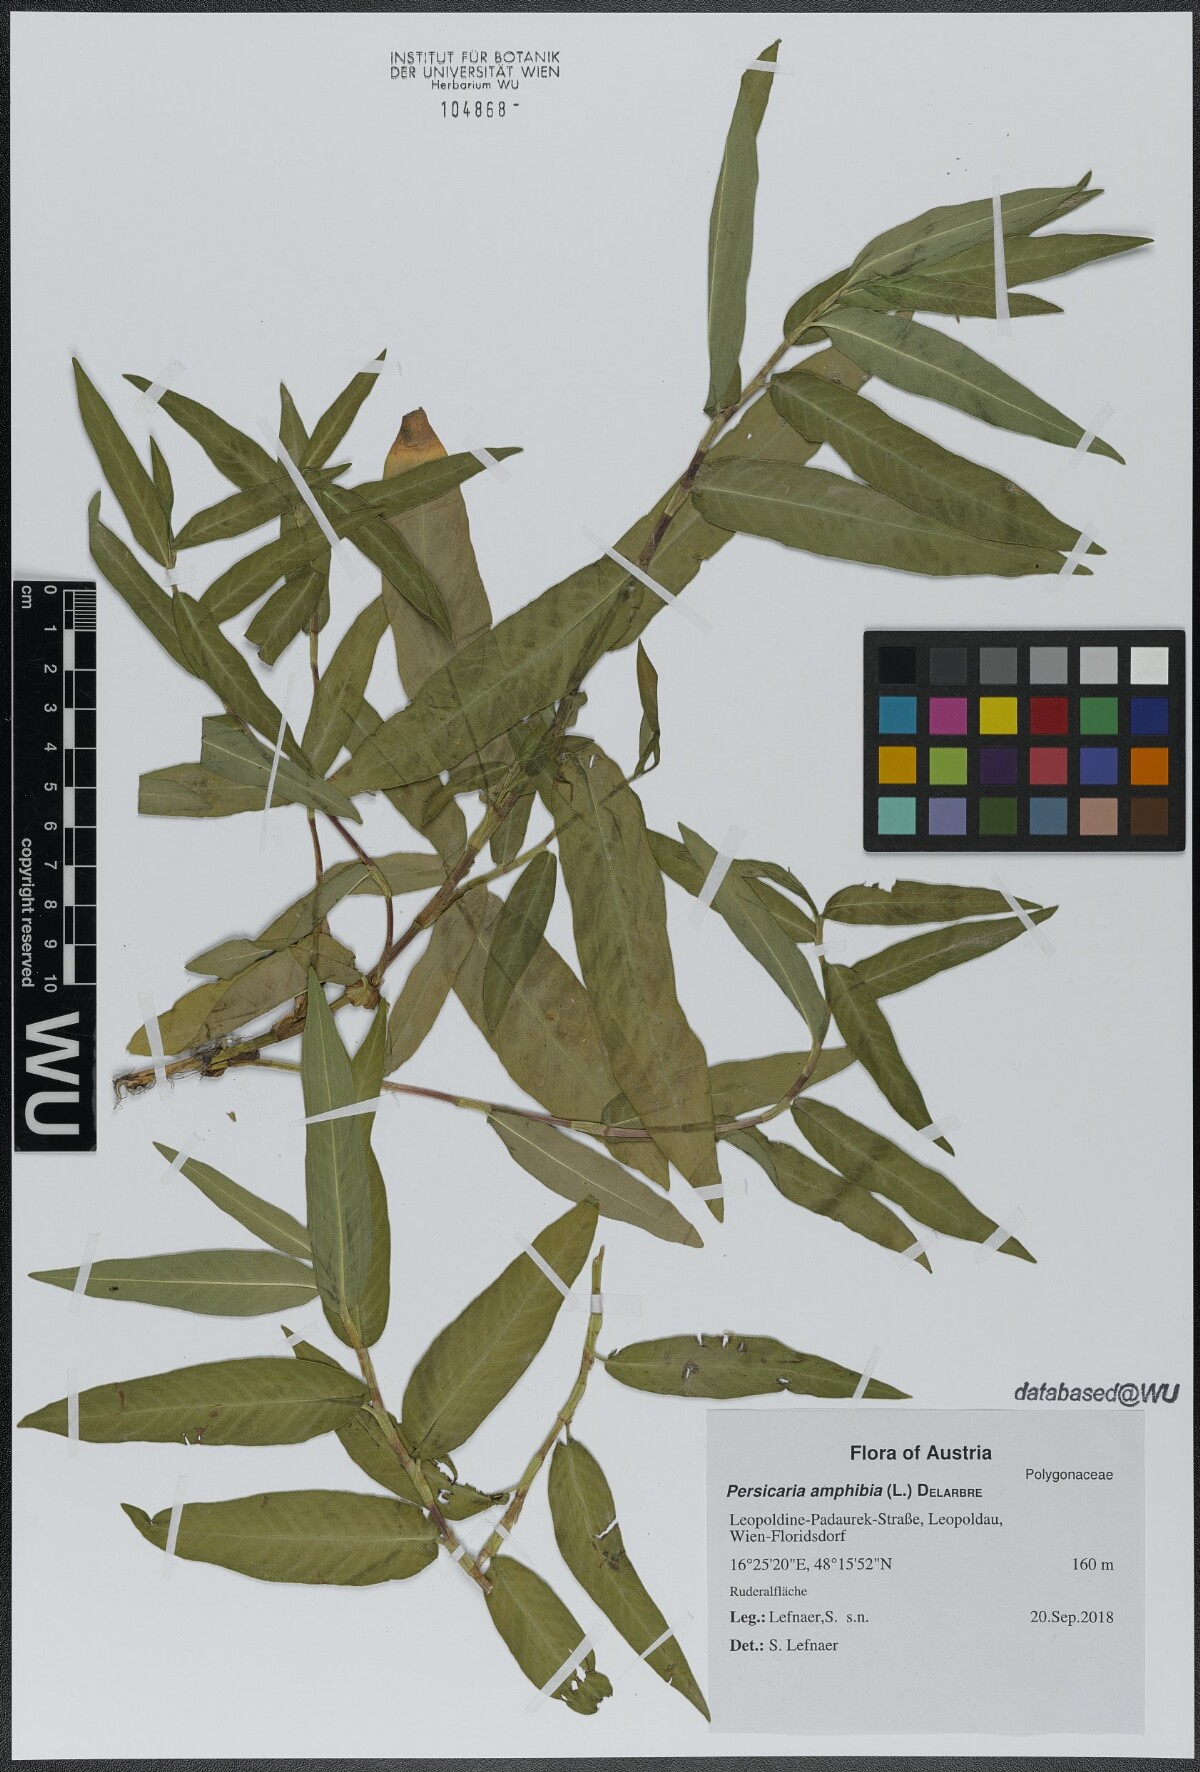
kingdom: Plantae
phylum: Tracheophyta
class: Magnoliopsida
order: Caryophyllales
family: Polygonaceae
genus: Persicaria
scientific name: Persicaria amphibia
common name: Amphibious bistort
